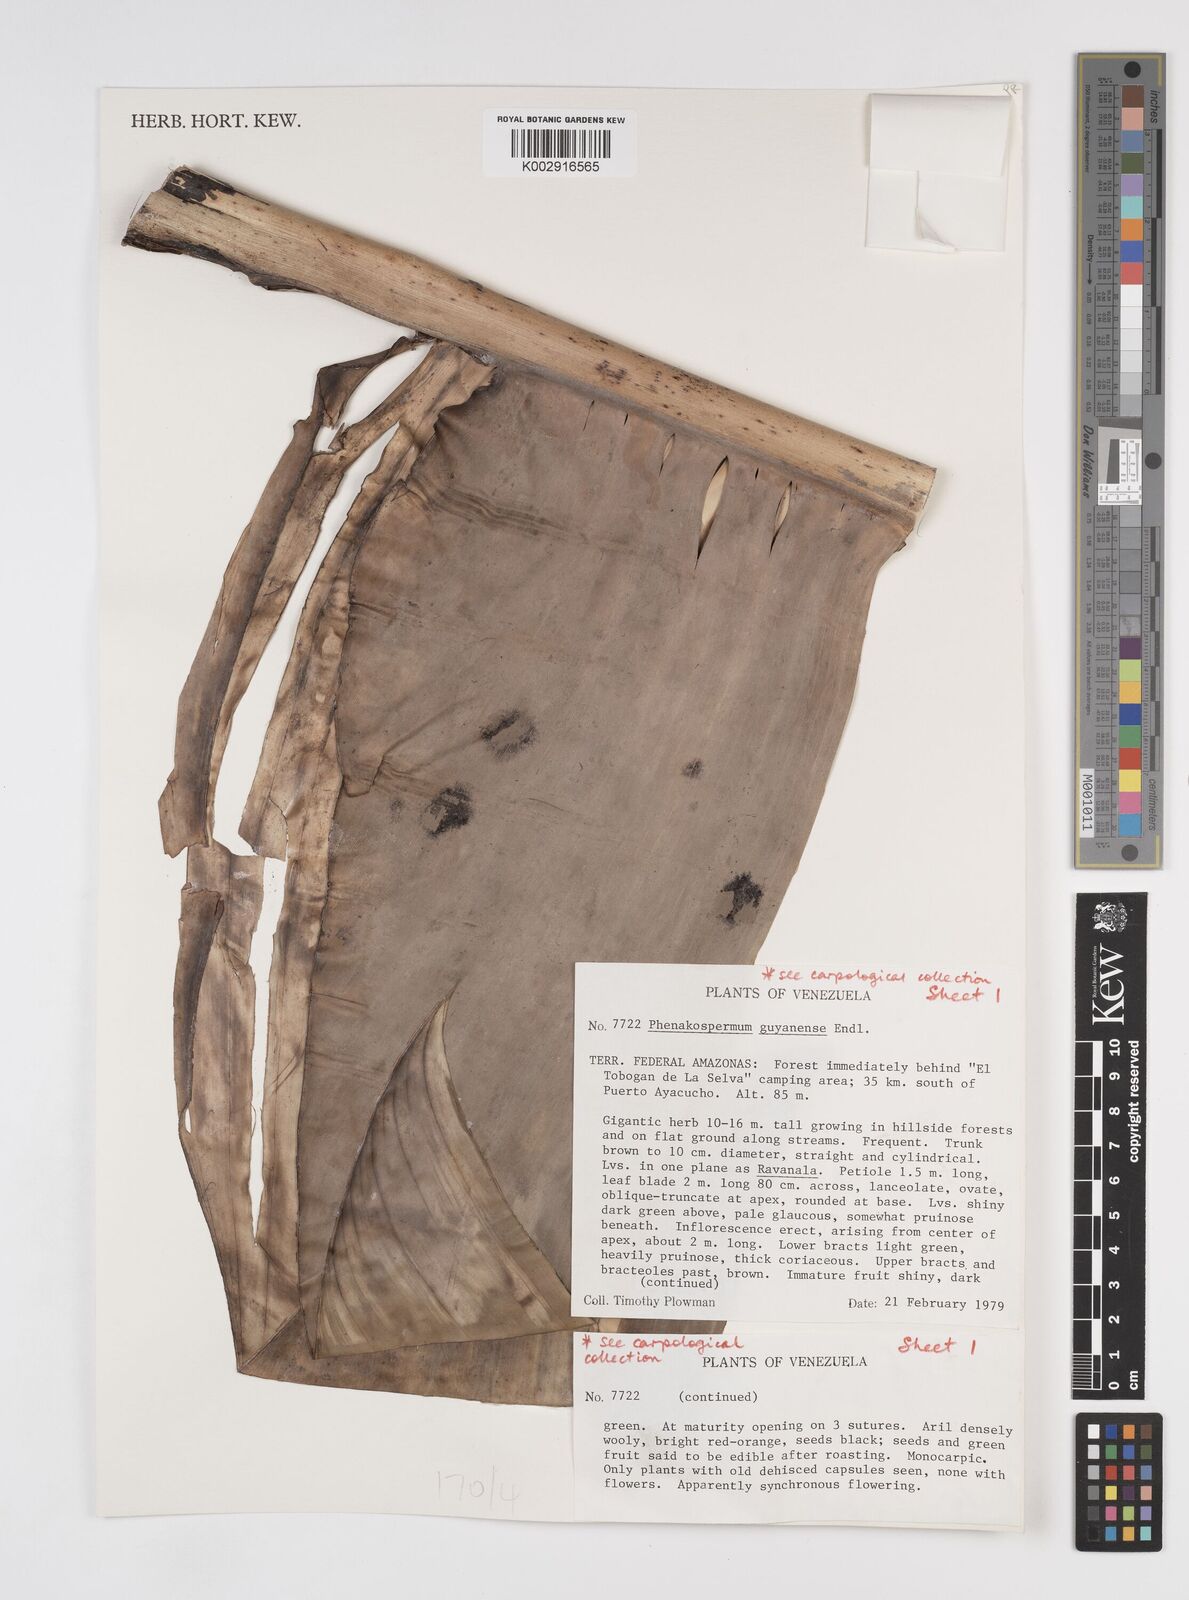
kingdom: Plantae
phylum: Tracheophyta
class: Liliopsida
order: Zingiberales
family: Strelitziaceae
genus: Phenakospermum
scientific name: Phenakospermum guyannense
